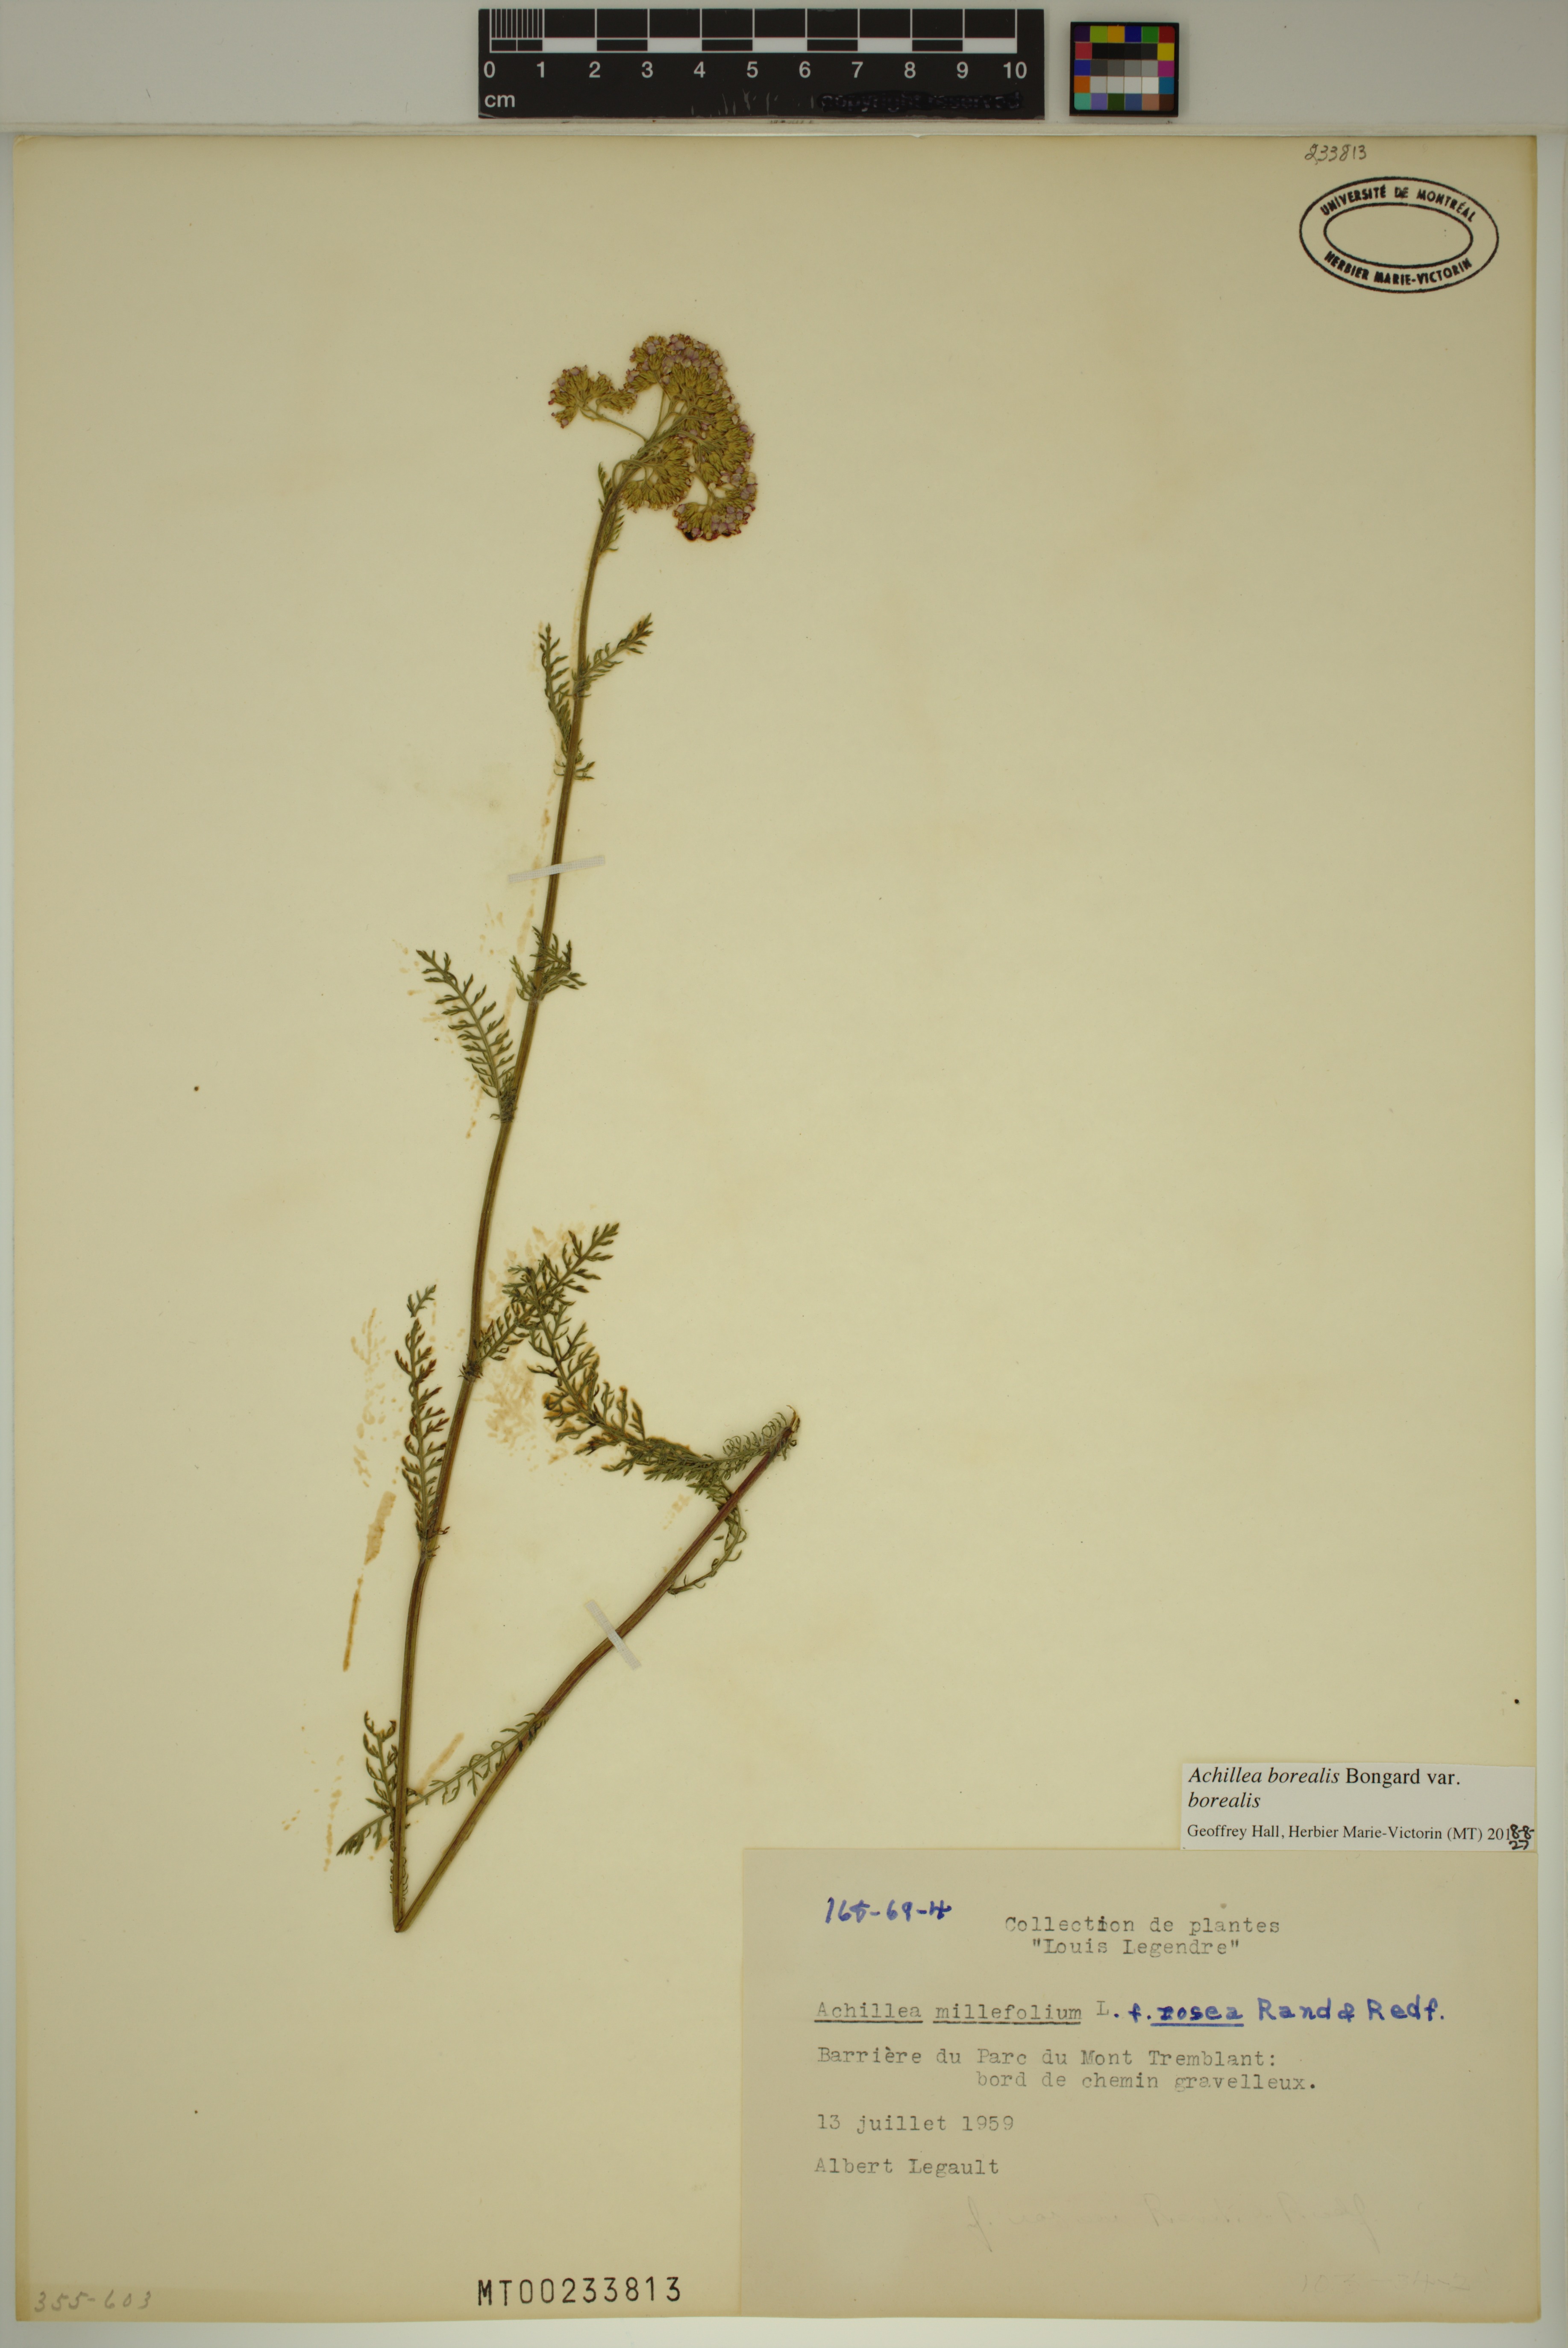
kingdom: Plantae
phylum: Tracheophyta
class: Magnoliopsida
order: Asterales
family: Asteraceae
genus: Achillea
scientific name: Achillea millefolium
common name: Yarrow
